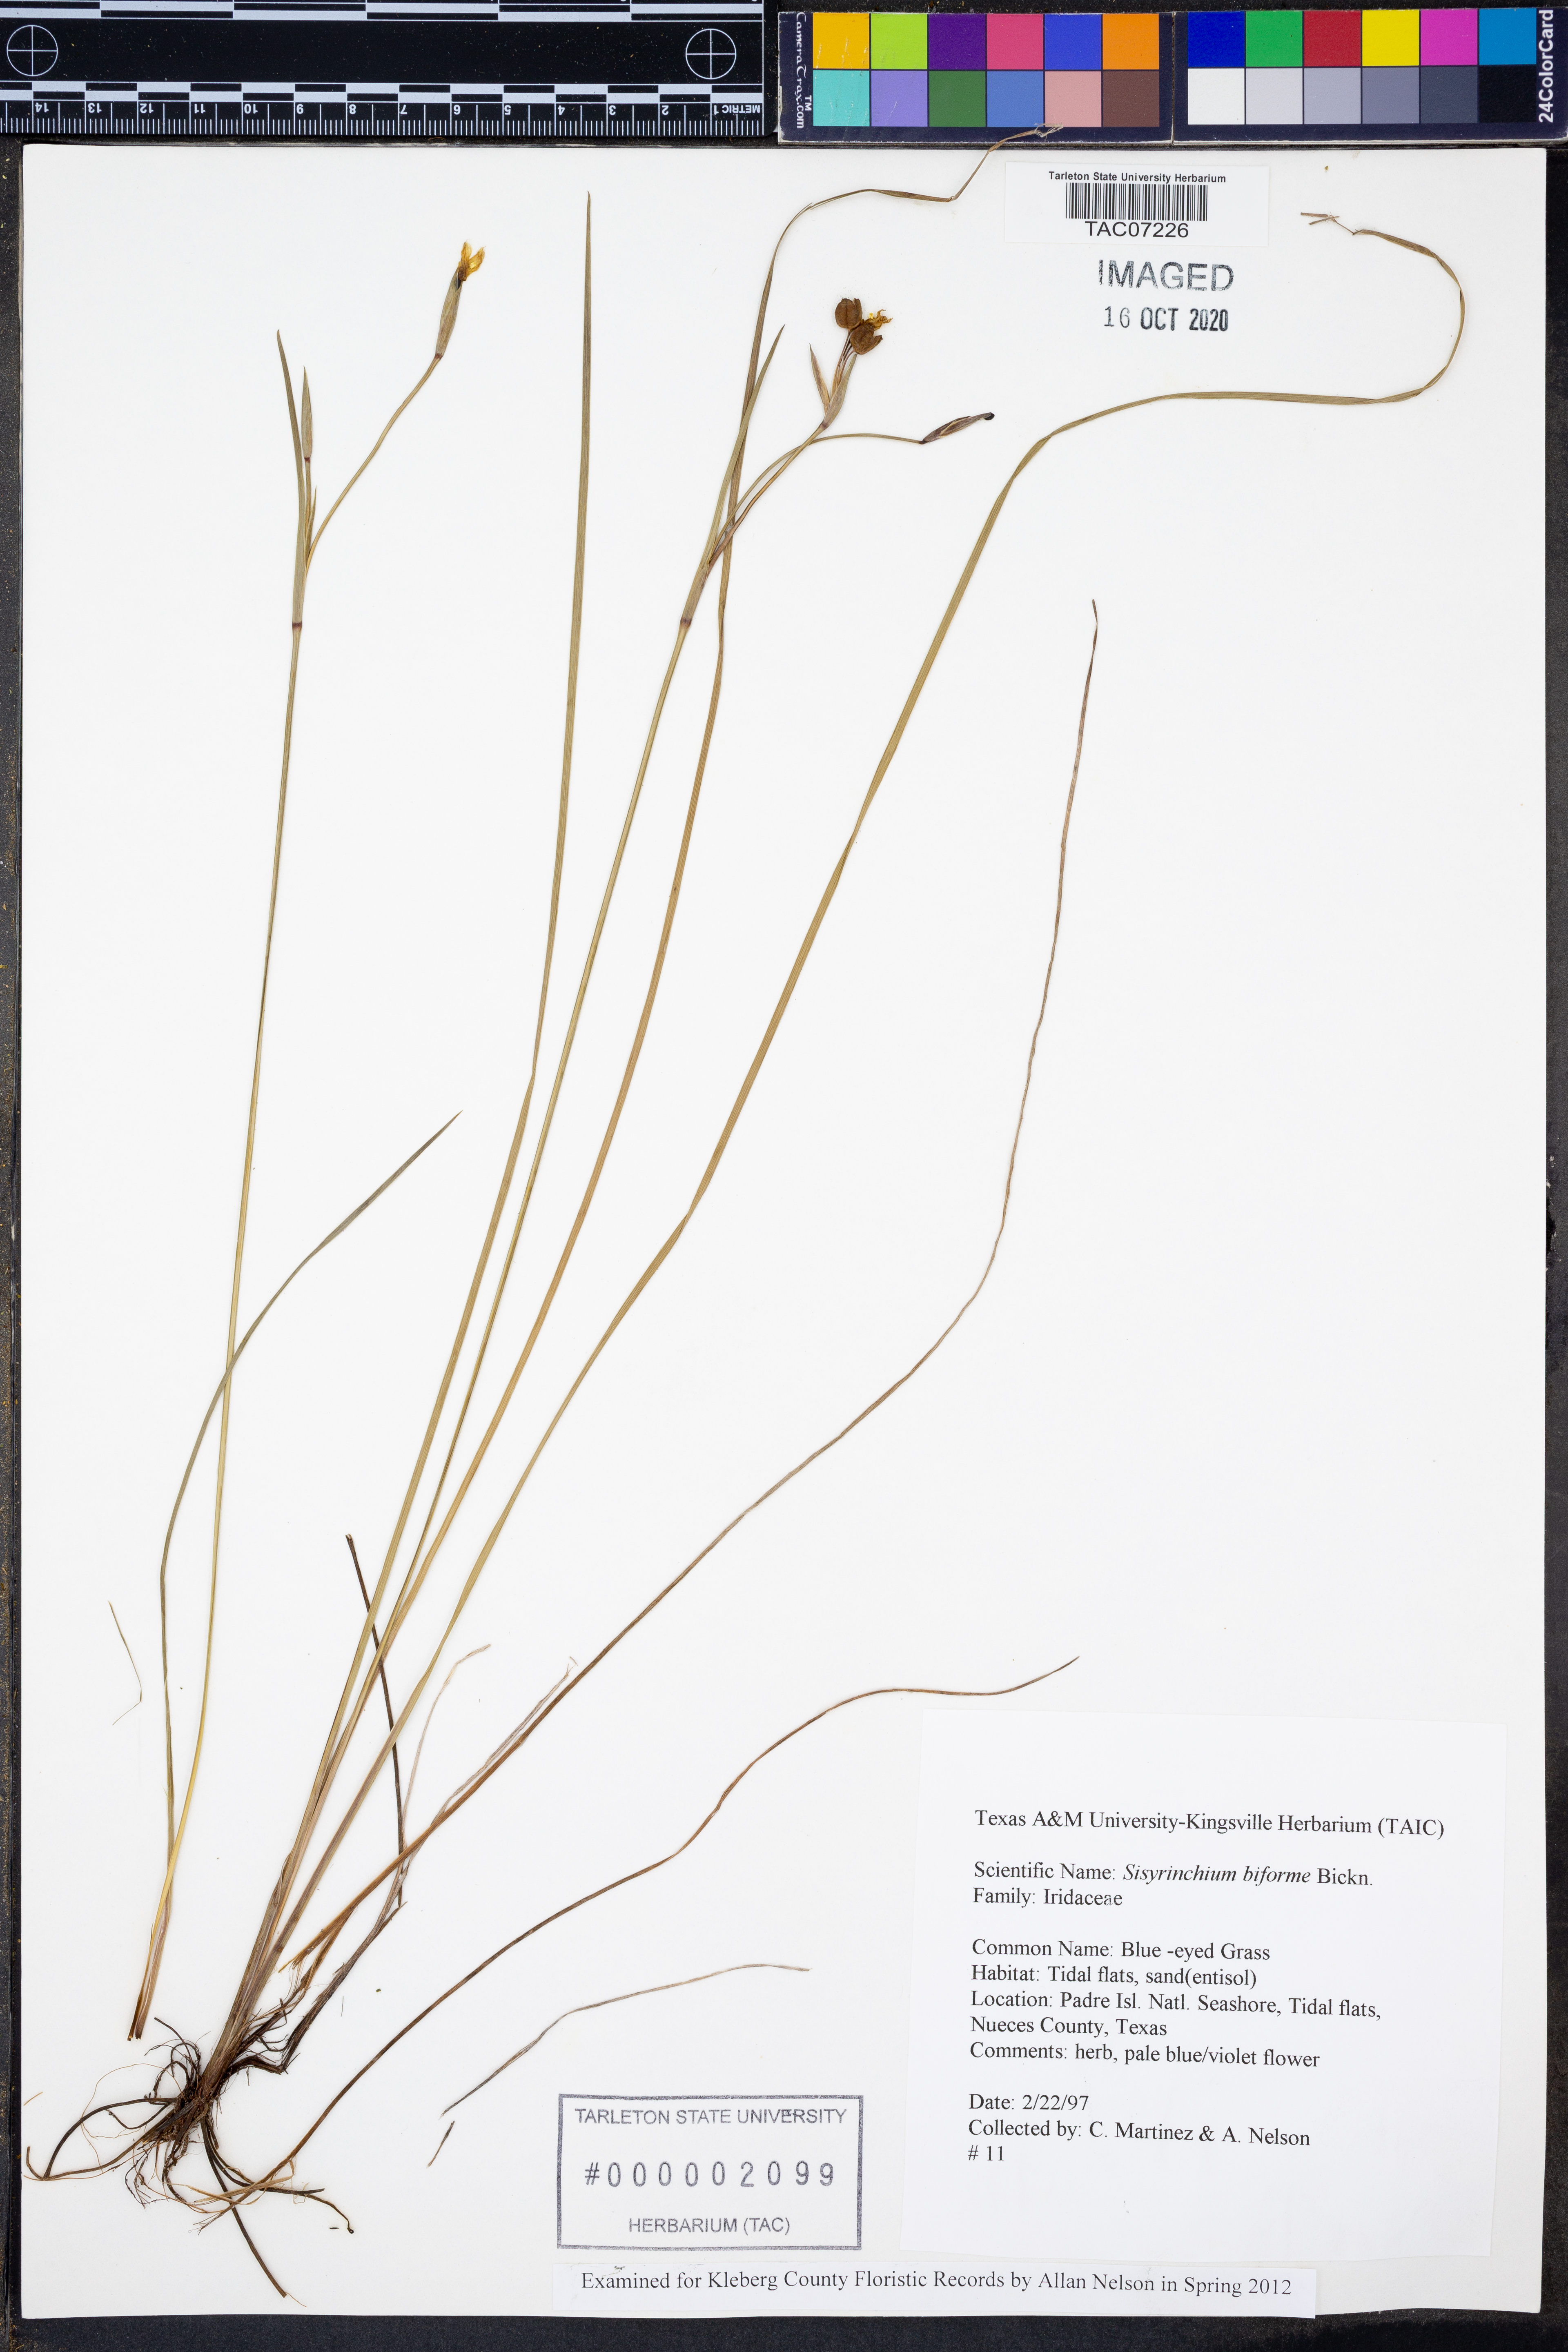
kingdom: Plantae
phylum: Tracheophyta
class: Liliopsida
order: Asparagales
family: Iridaceae
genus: Sisyrinchium
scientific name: Sisyrinchium biforme
